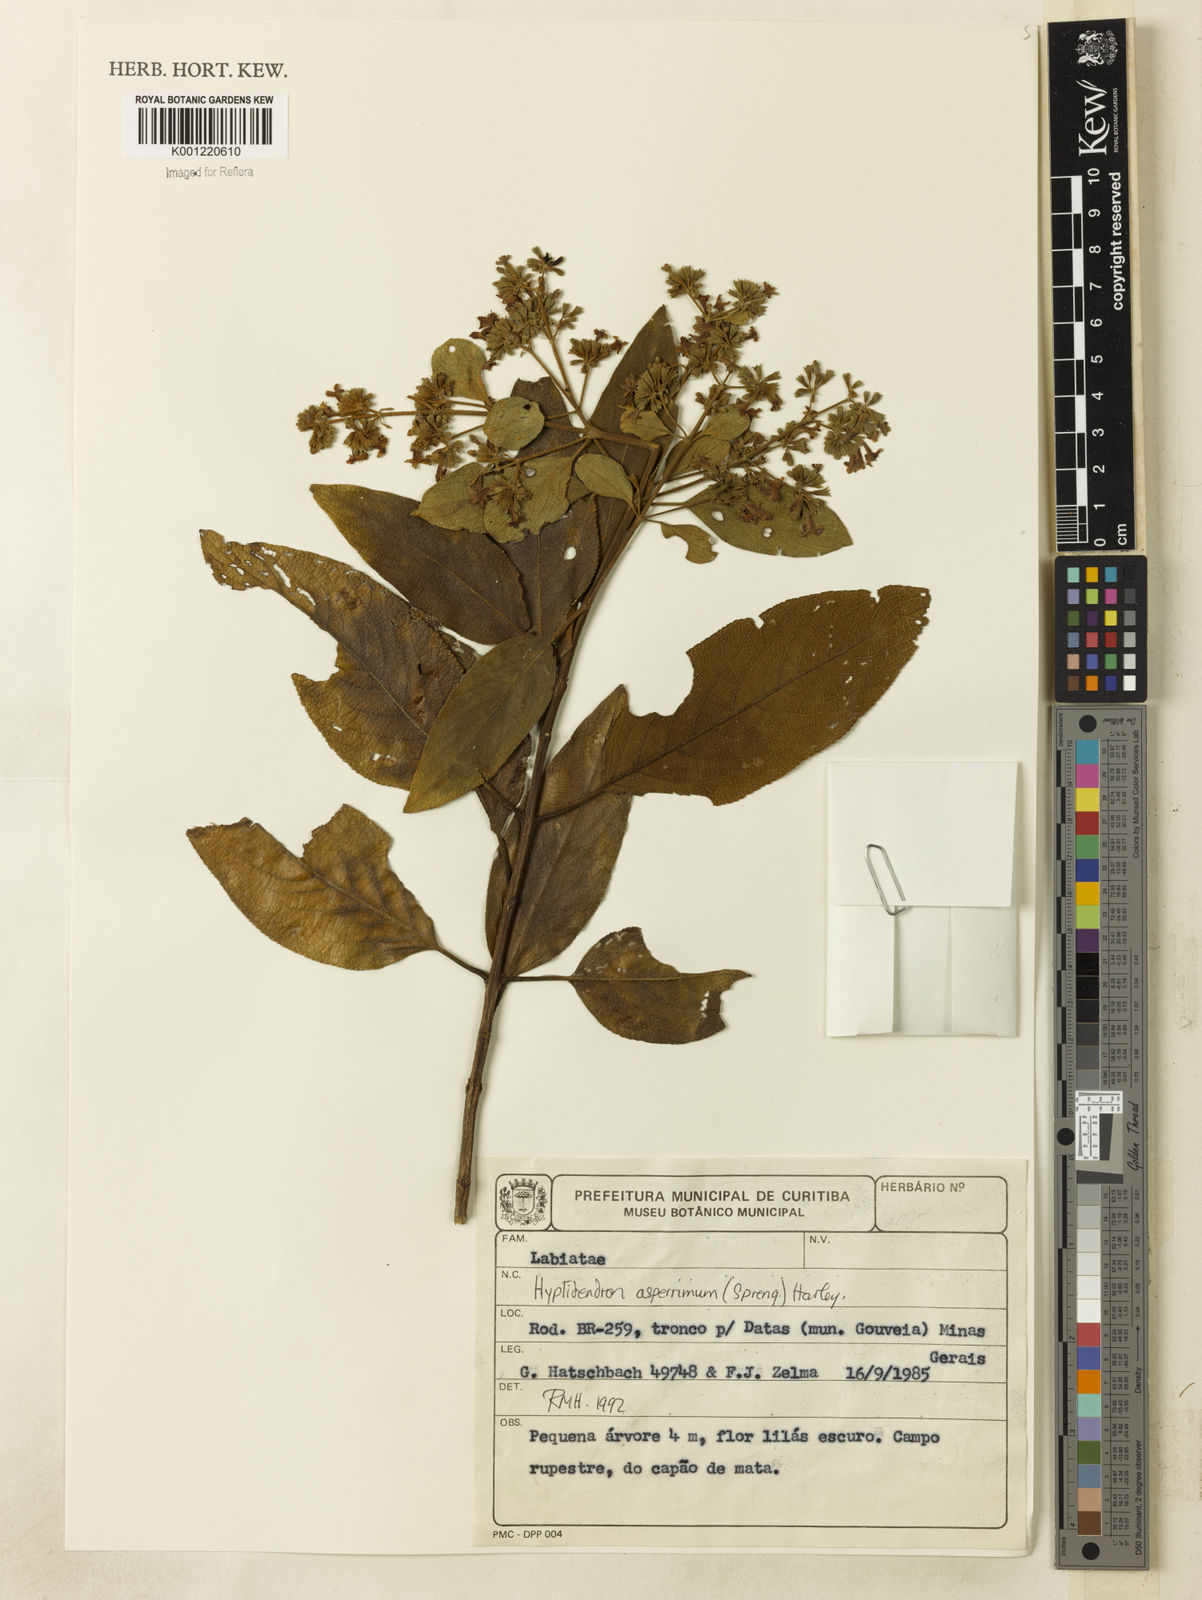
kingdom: Plantae
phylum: Tracheophyta
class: Magnoliopsida
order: Lamiales
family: Lamiaceae
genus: Hyptidendron
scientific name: Hyptidendron asperrimum
